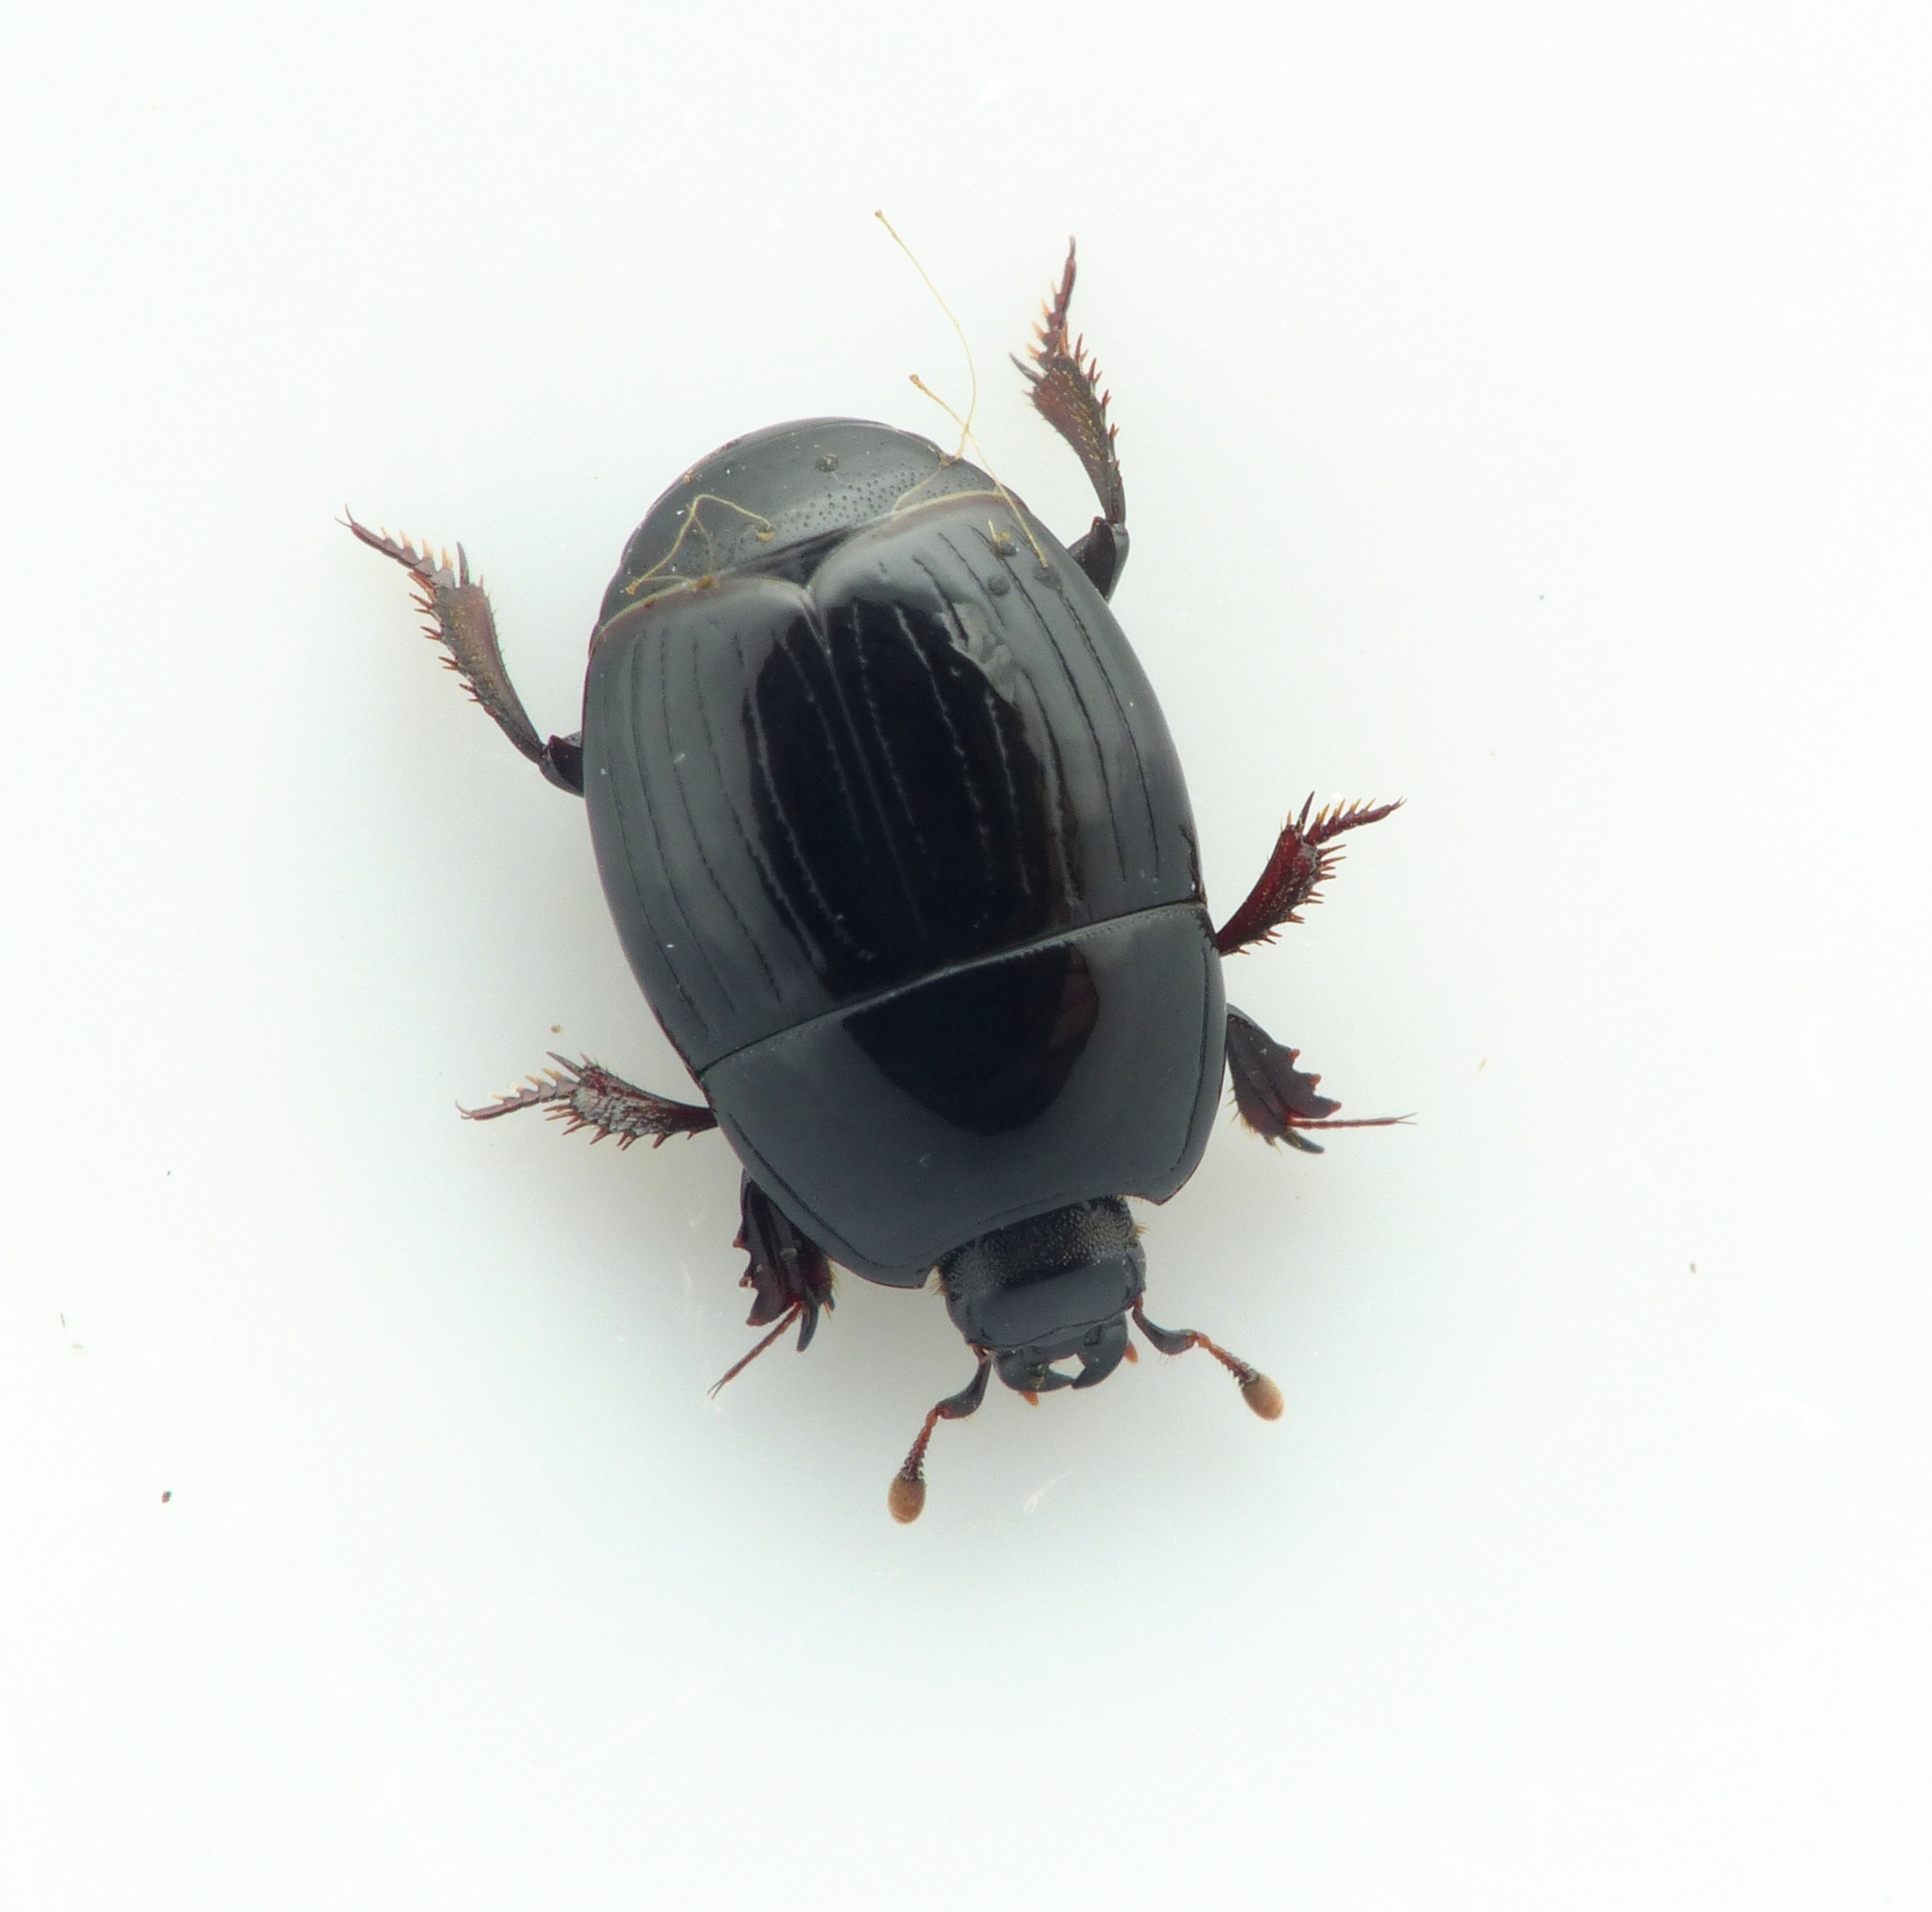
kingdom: Animalia
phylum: Arthropoda
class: Insecta
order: Coleoptera
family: Histeridae
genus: Atholus
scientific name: Atholus duodecimstriatus
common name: Fuldstribet stumpbille
